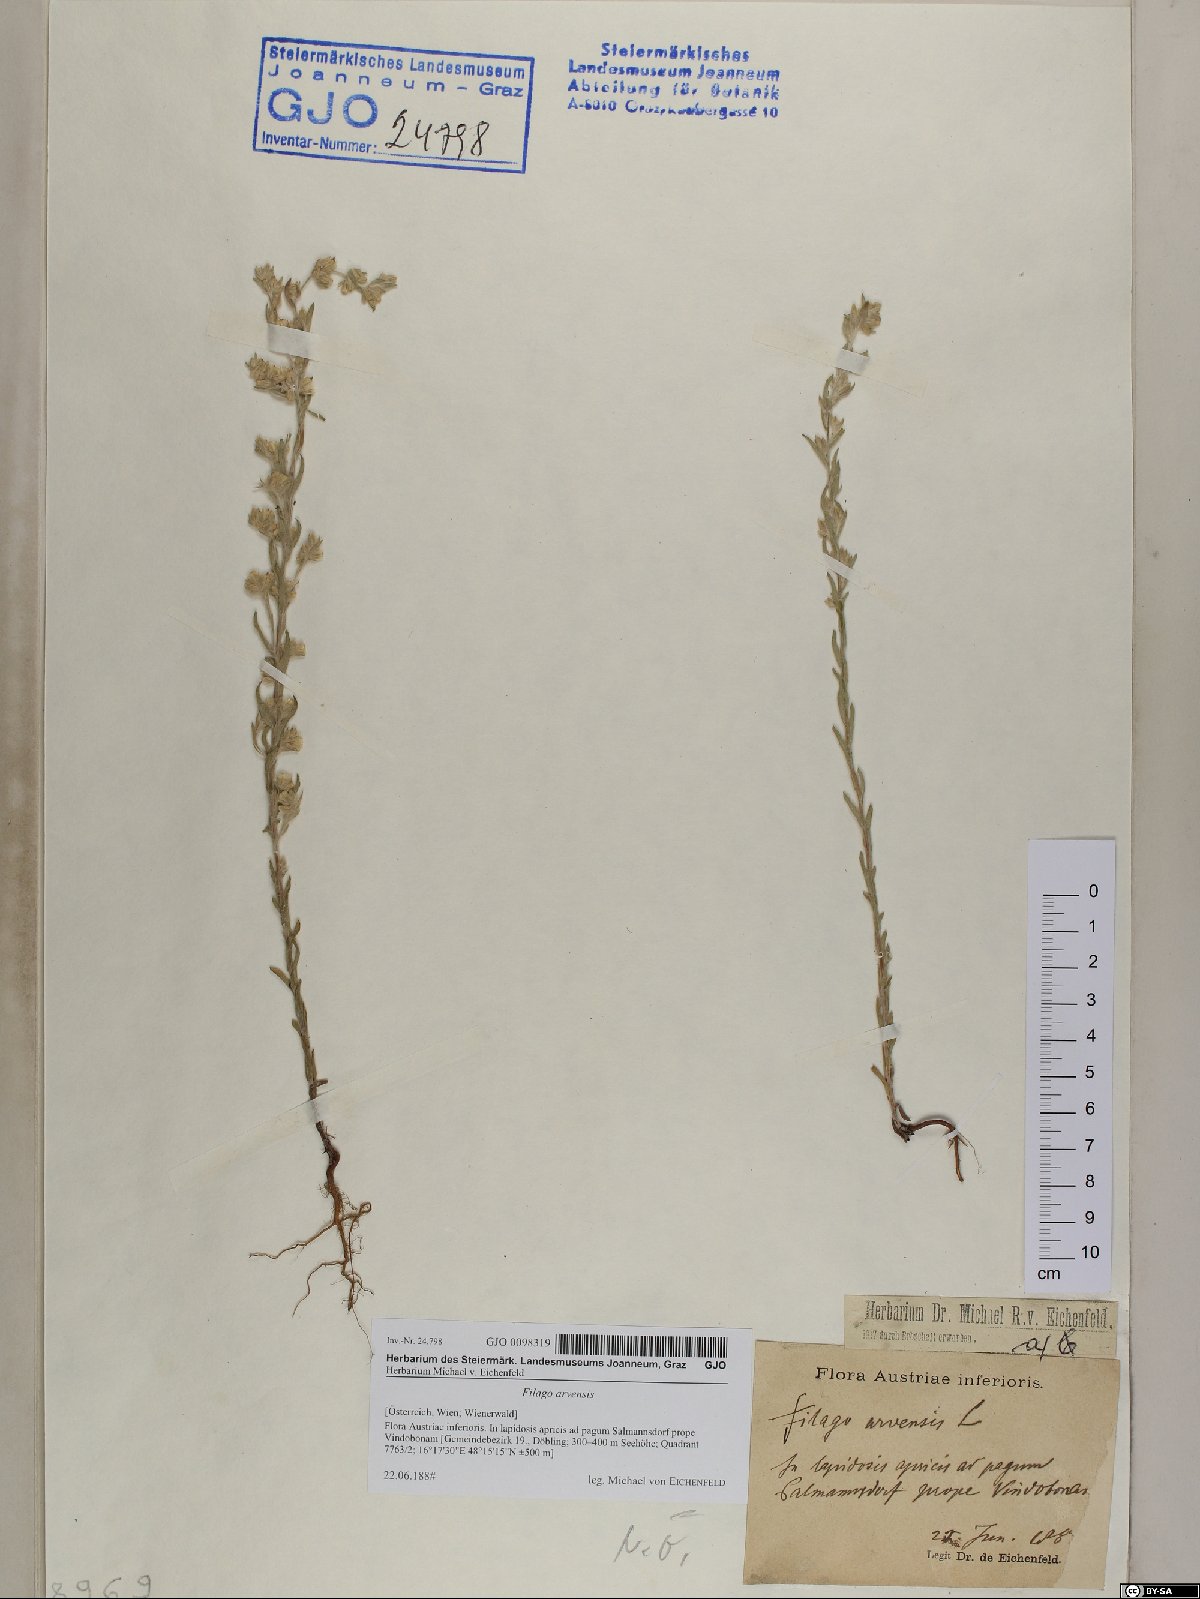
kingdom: Plantae
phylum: Tracheophyta
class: Magnoliopsida
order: Asterales
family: Asteraceae
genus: Filago
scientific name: Filago arvensis
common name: Field cudweed
